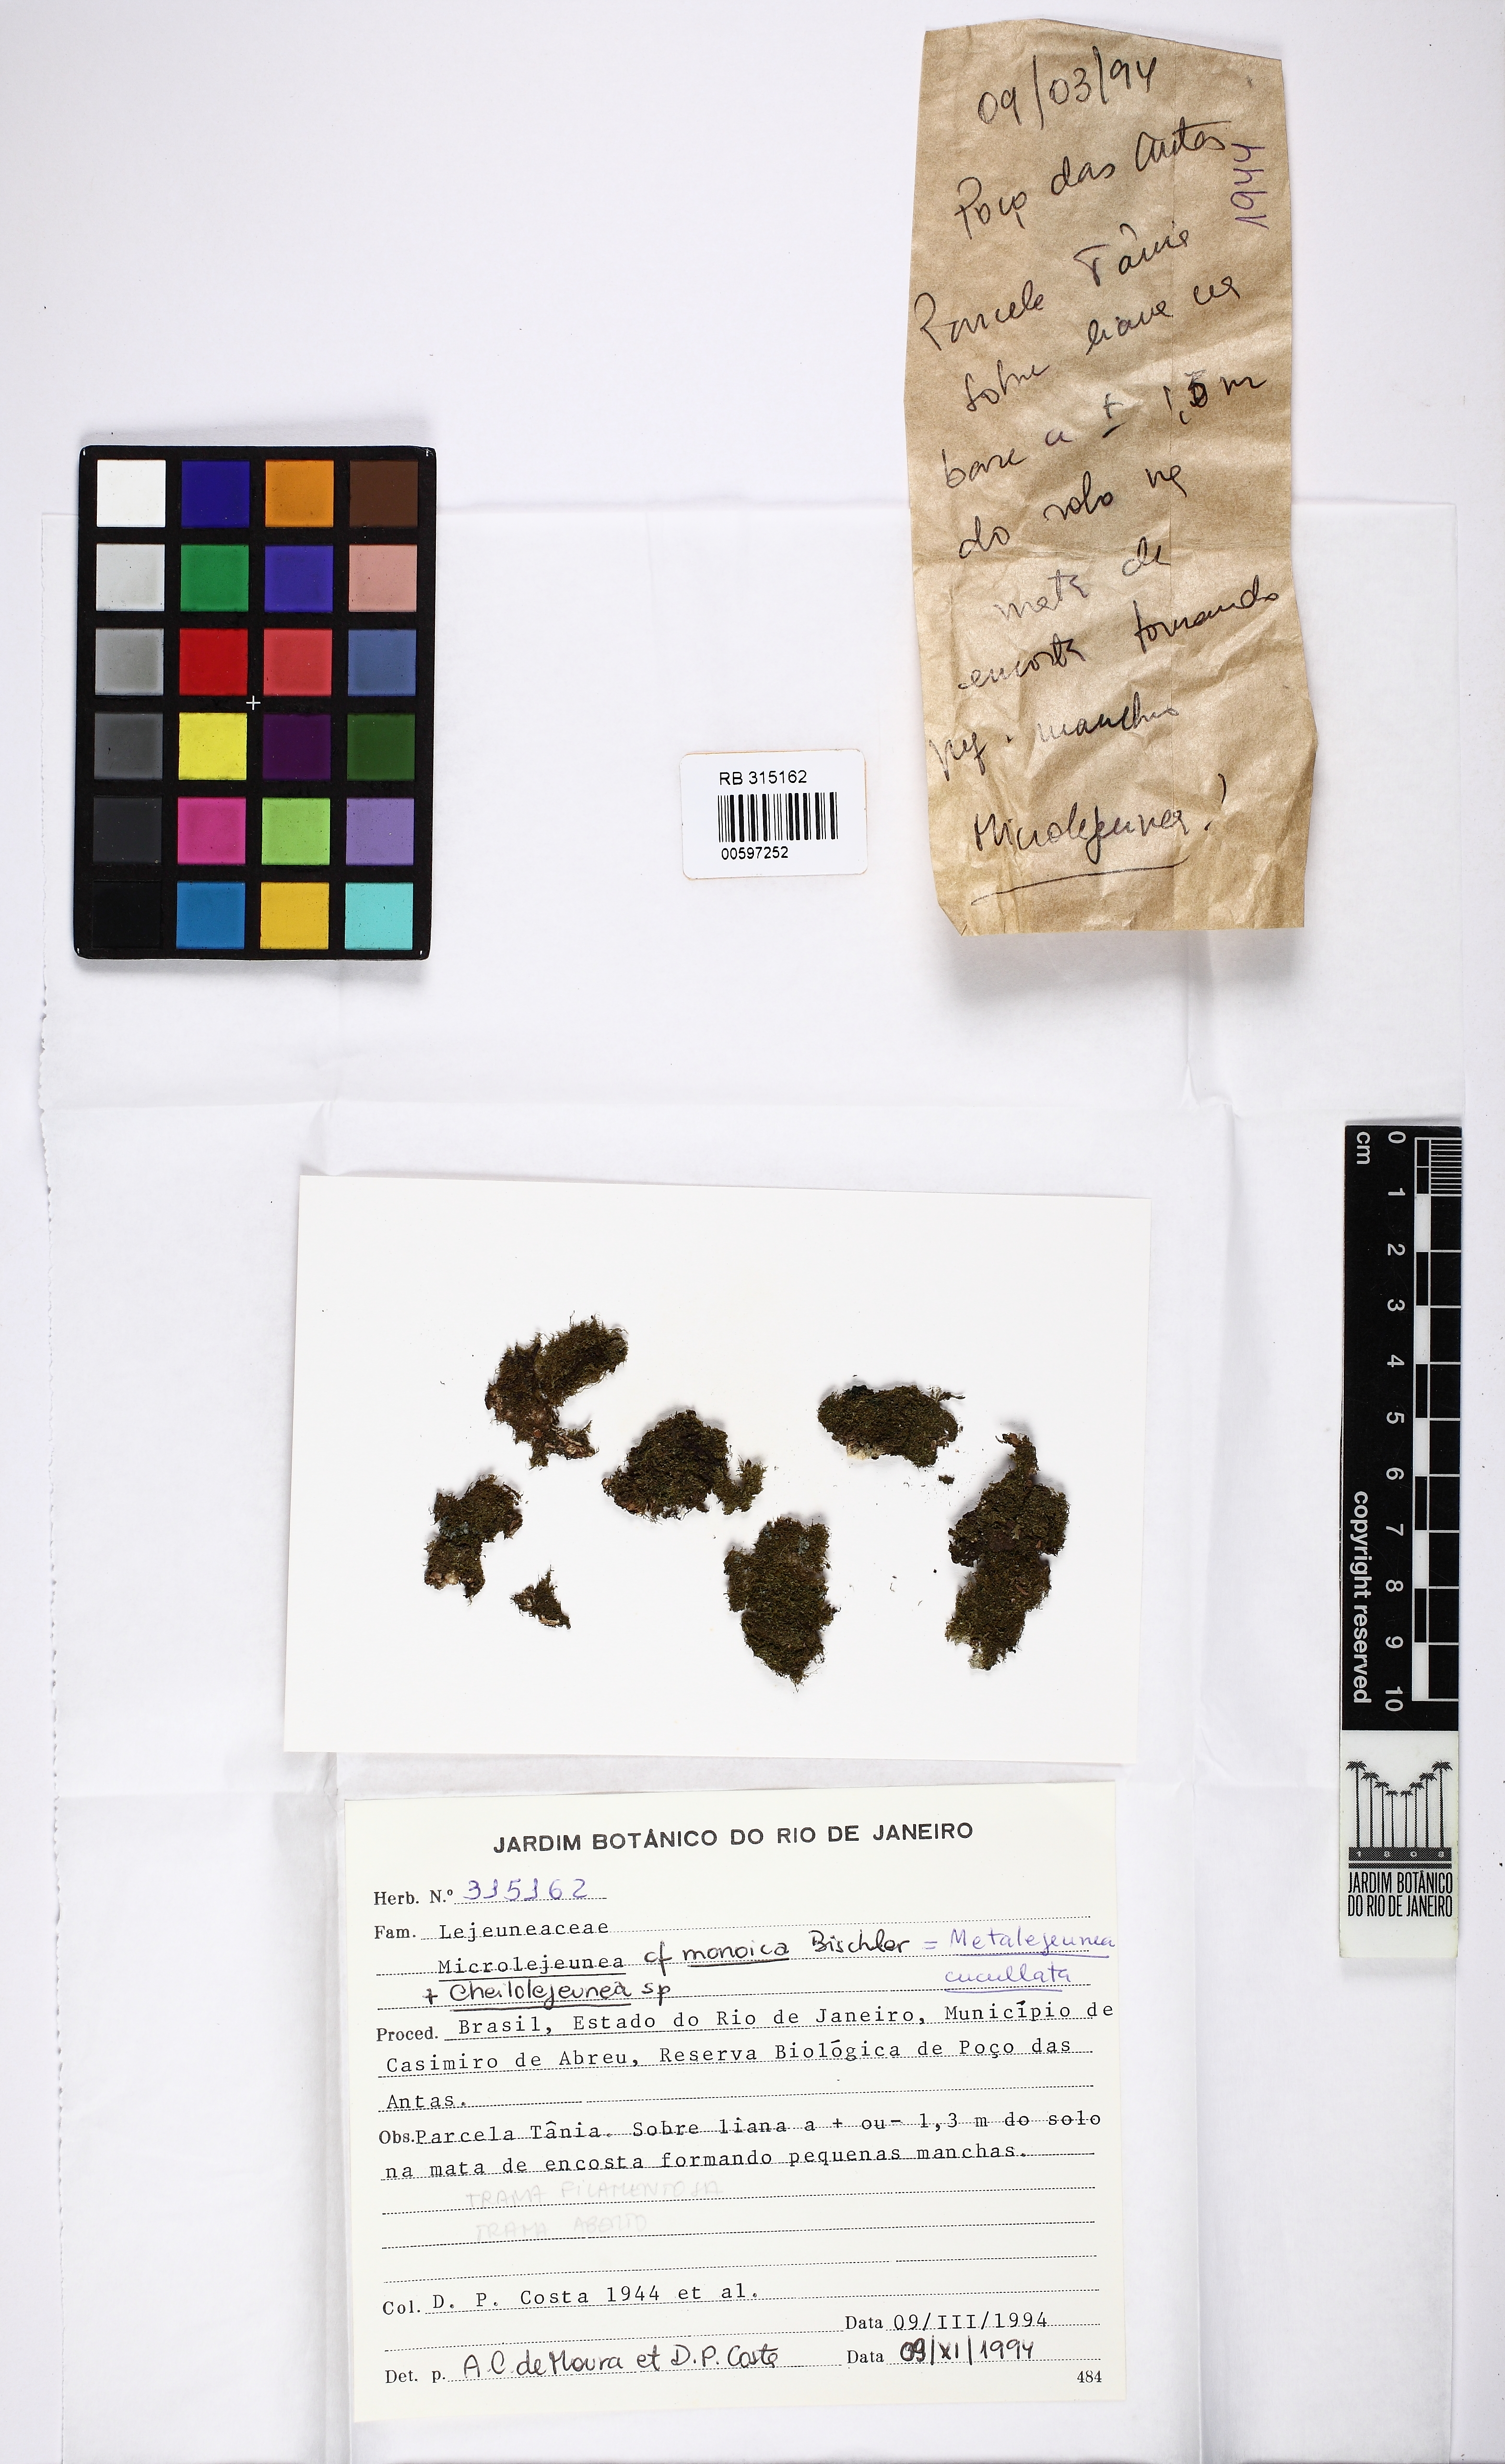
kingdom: Plantae
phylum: Marchantiophyta
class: Jungermanniopsida
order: Porellales
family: Lejeuneaceae
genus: Metalejeunea
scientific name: Metalejeunea cucullata
